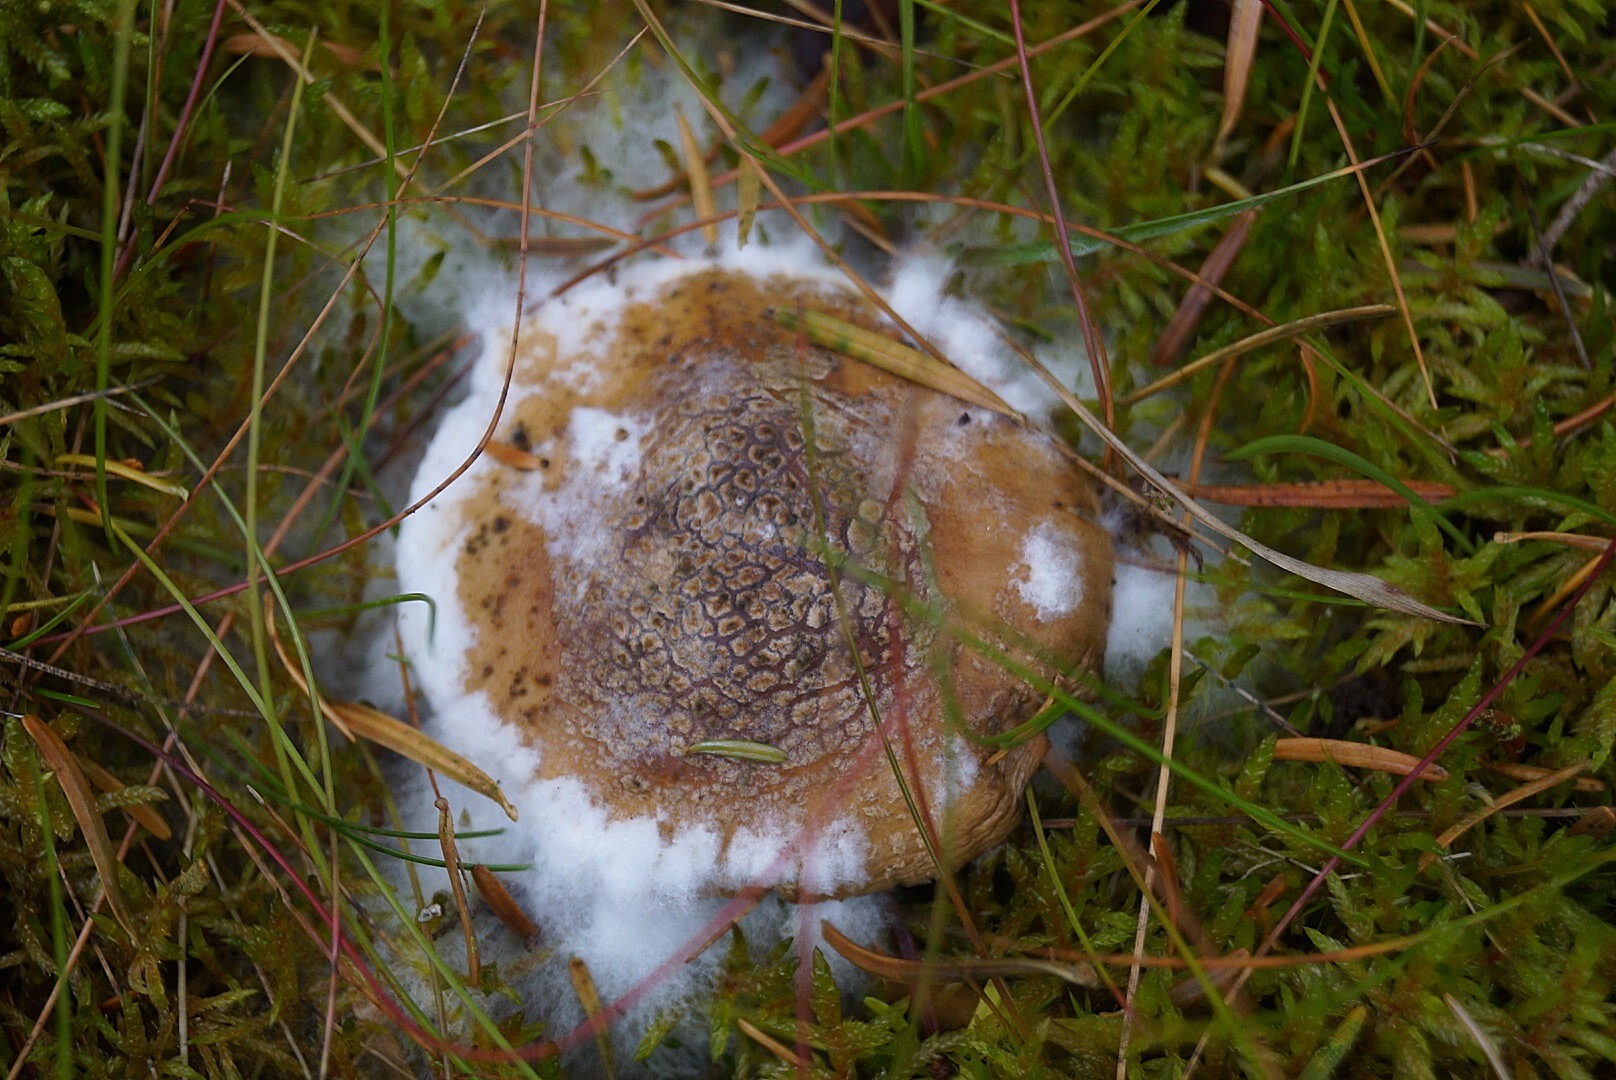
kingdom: Fungi
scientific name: Fungi
